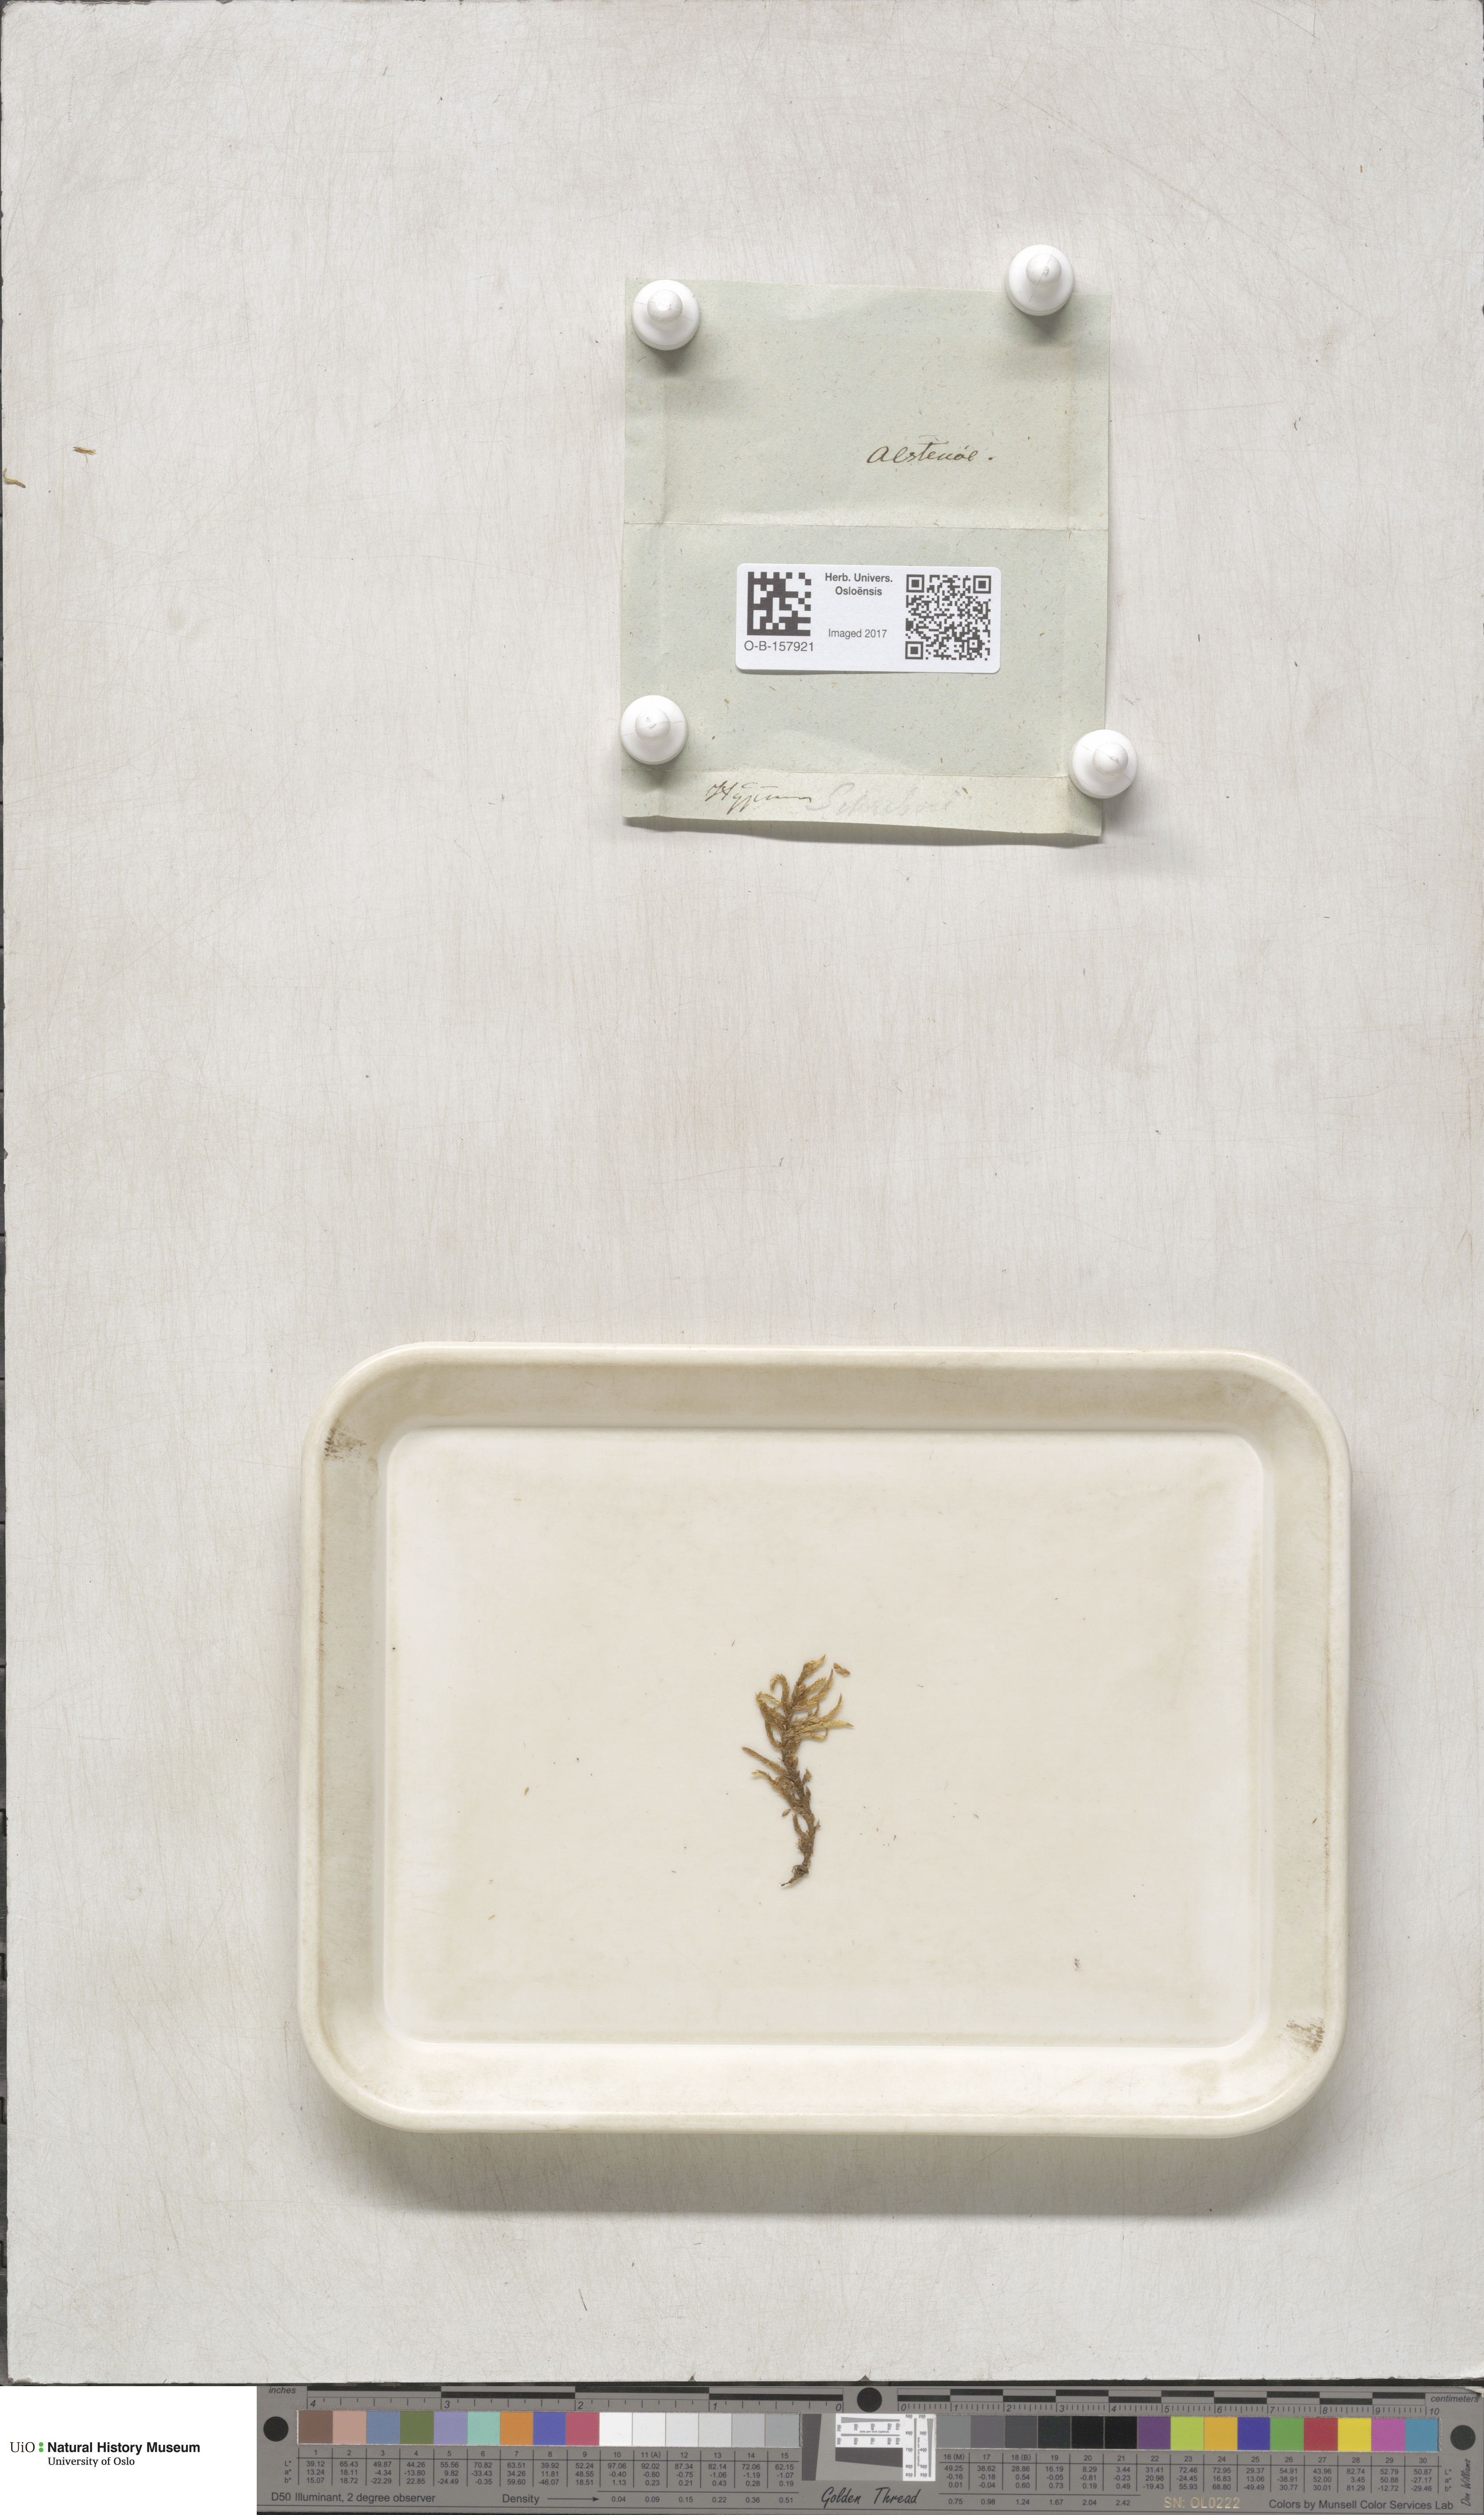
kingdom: Plantae
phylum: Bryophyta
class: Bryopsida
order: Hypnales
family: Hylocomiaceae
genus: Pleurozium
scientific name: Pleurozium schreberi
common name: Red-stemmed feather moss
